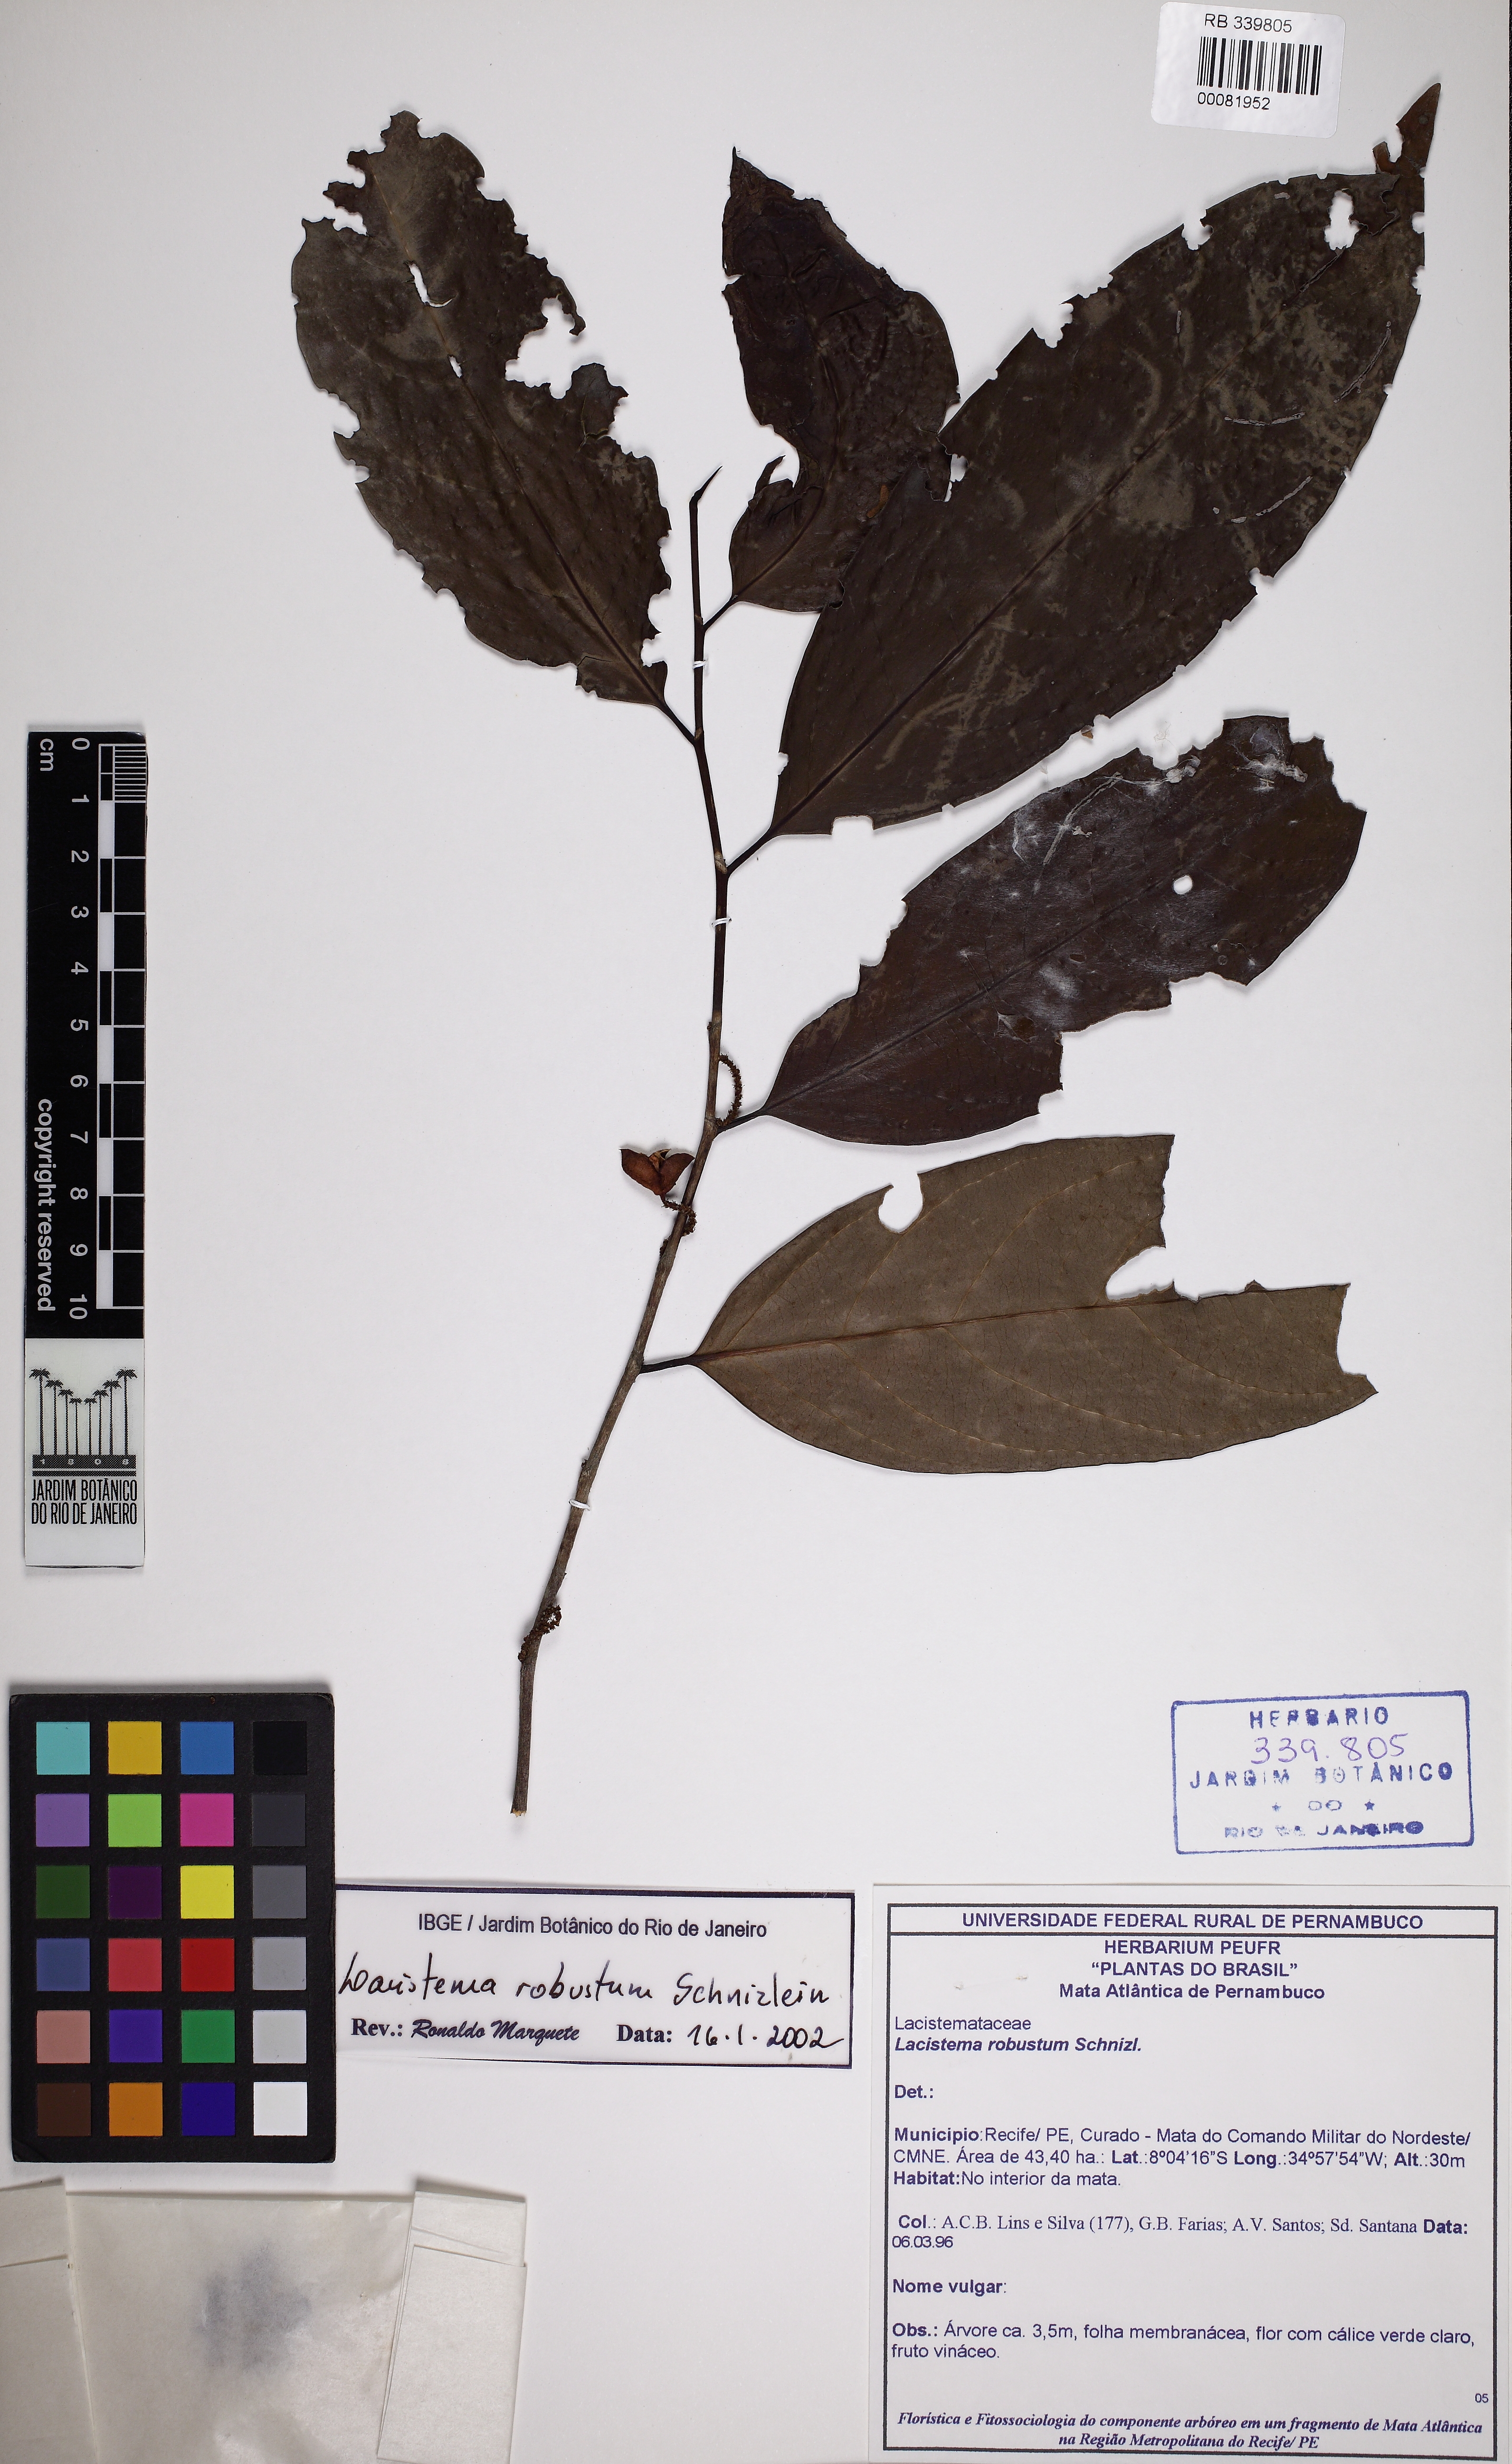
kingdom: Plantae
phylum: Tracheophyta
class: Magnoliopsida
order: Malpighiales
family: Lacistemataceae
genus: Lacistema
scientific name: Lacistema robustum
